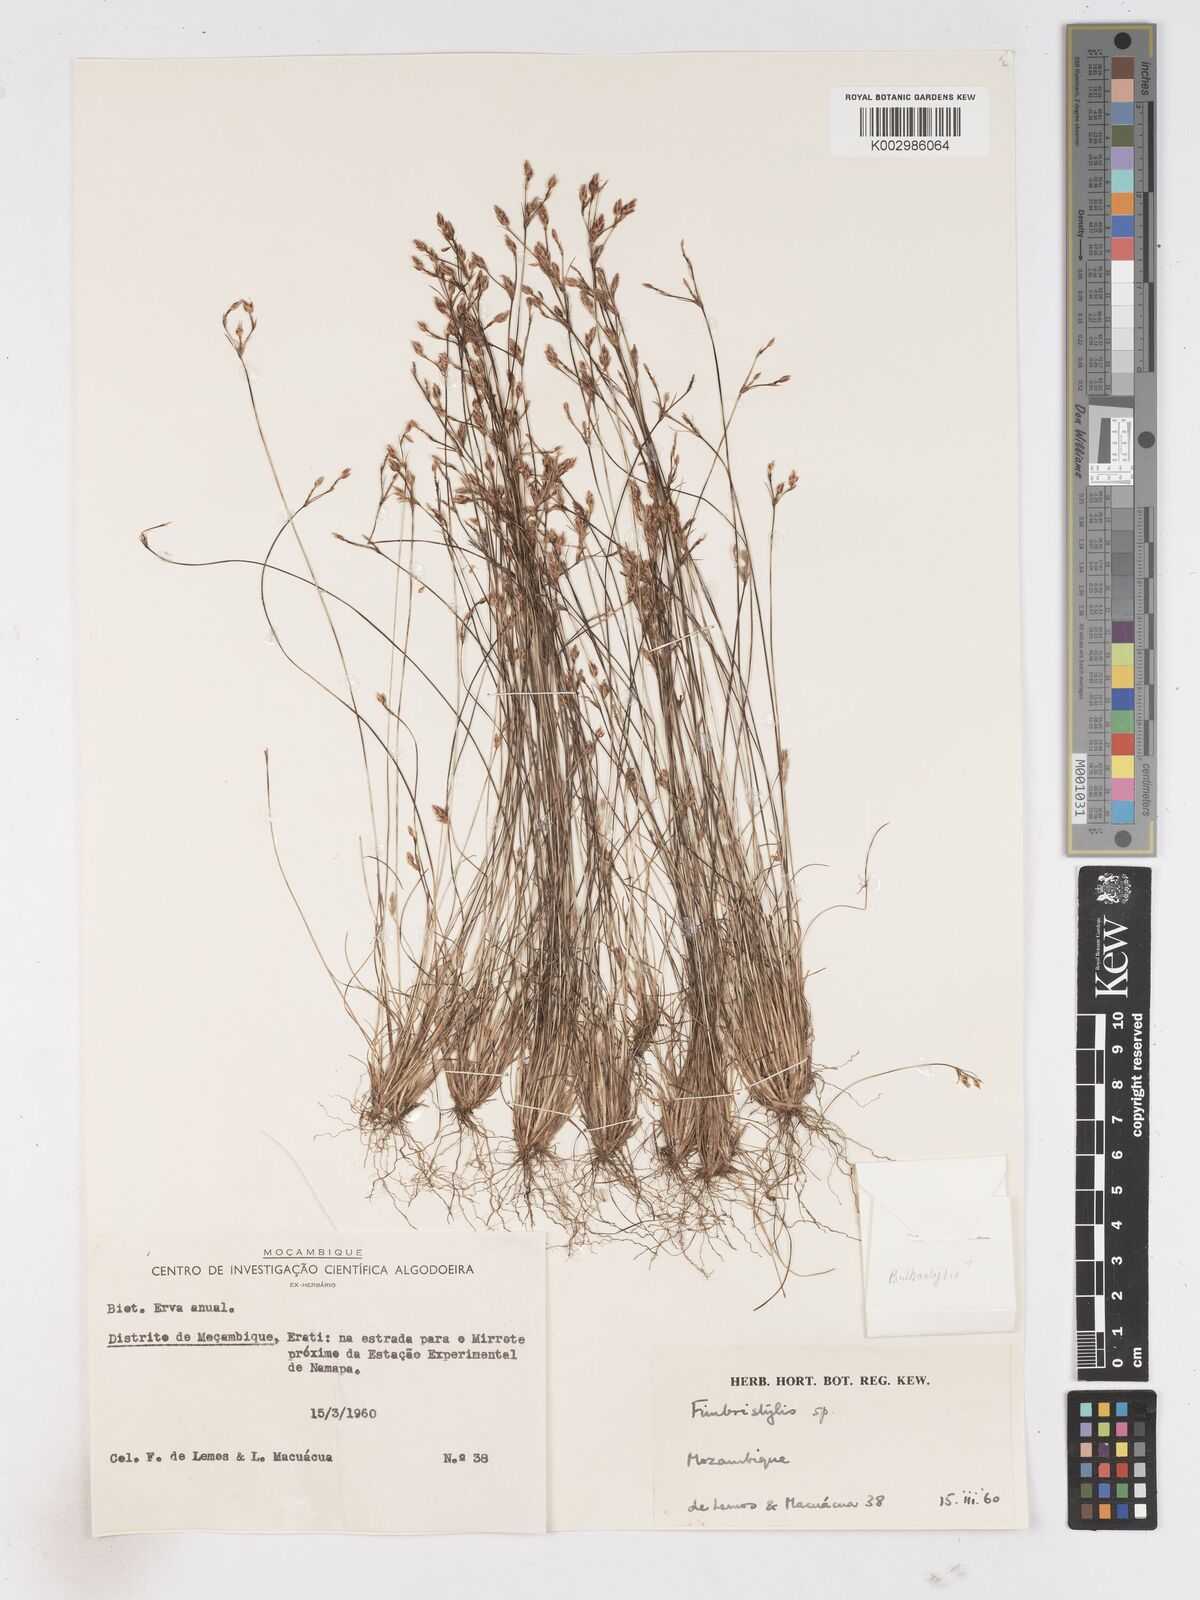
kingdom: Plantae
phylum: Tracheophyta
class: Liliopsida
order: Poales
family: Cyperaceae
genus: Fimbristylis
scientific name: Fimbristylis
